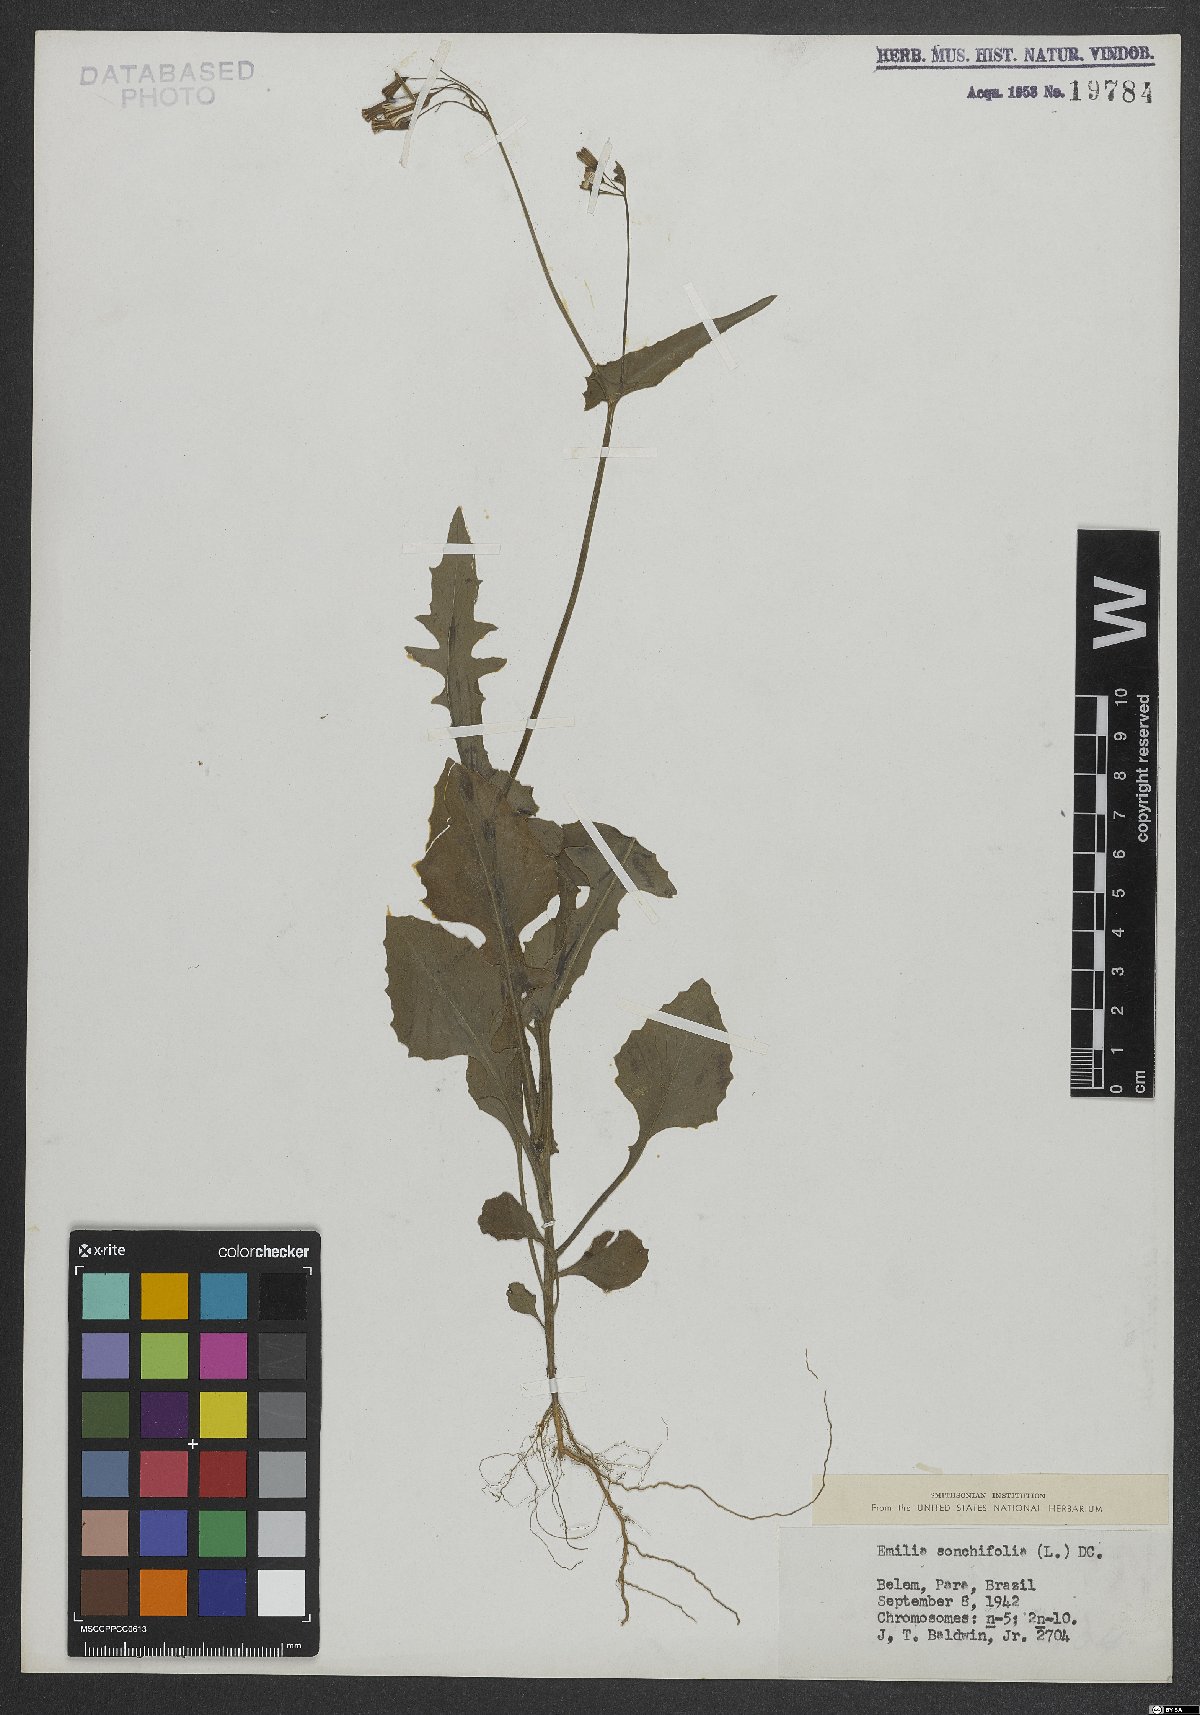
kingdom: Plantae
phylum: Tracheophyta
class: Magnoliopsida
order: Asterales
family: Asteraceae
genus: Emilia
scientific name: Emilia sonchifolia
